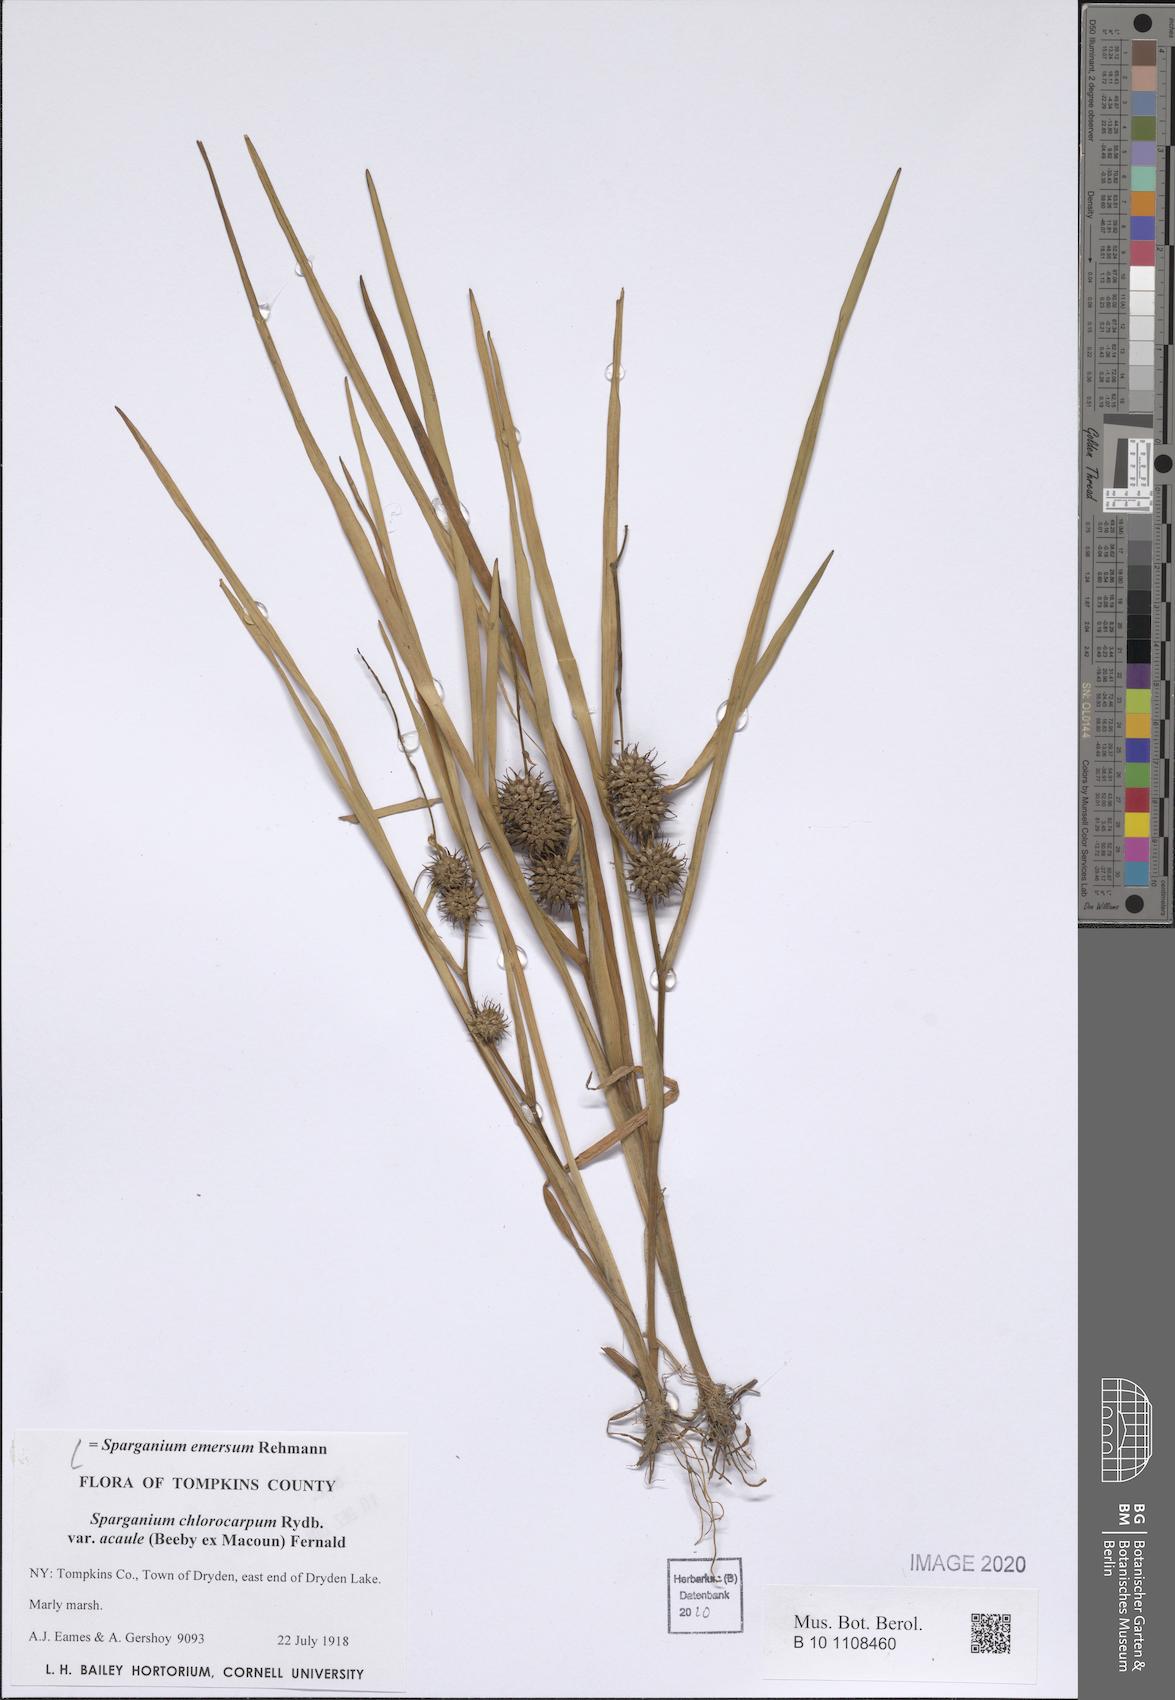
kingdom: Plantae
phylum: Tracheophyta
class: Liliopsida
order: Poales
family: Typhaceae
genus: Sparganium
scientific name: Sparganium emersum
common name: Unbranched bur-reed
